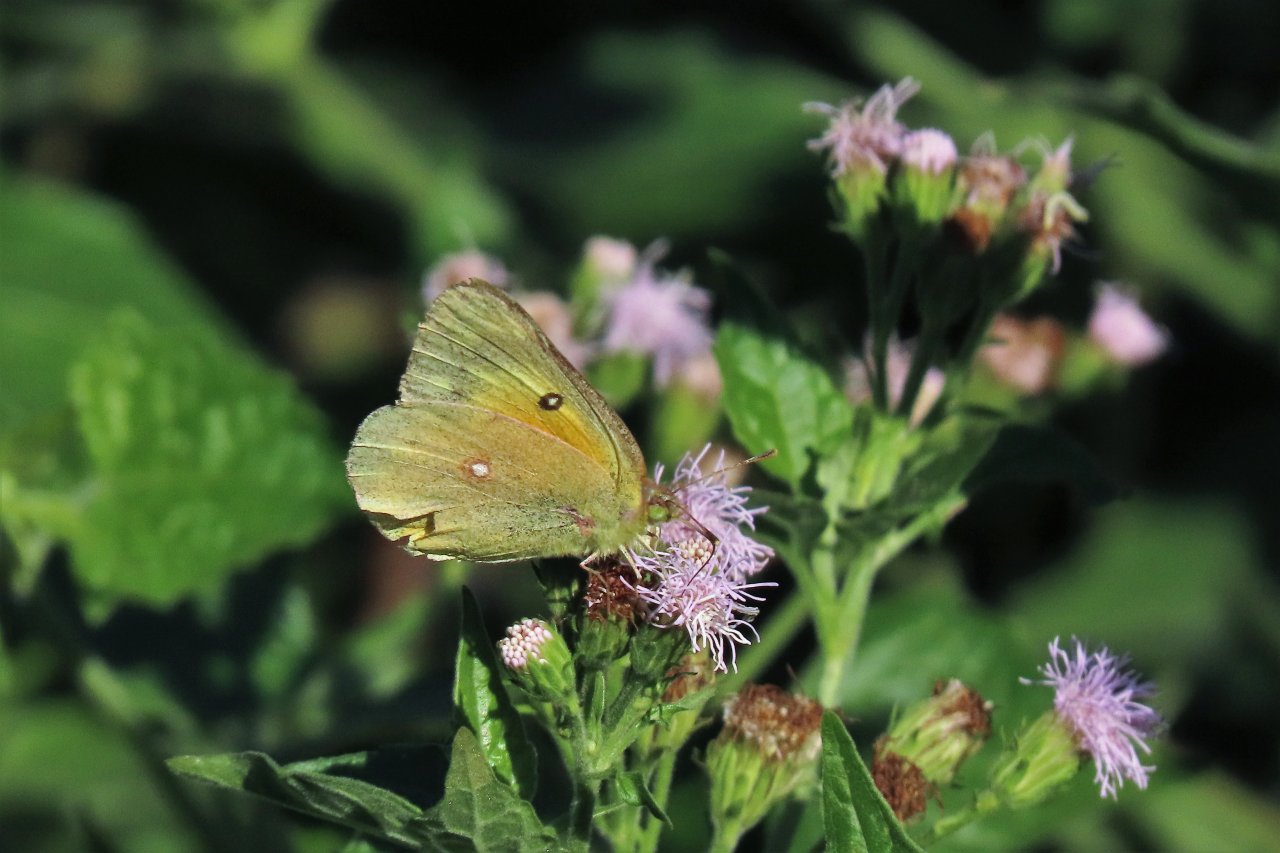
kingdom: Animalia
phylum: Arthropoda
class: Insecta
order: Lepidoptera
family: Pieridae
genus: Colias
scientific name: Colias eurytheme
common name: Orange Sulphur
